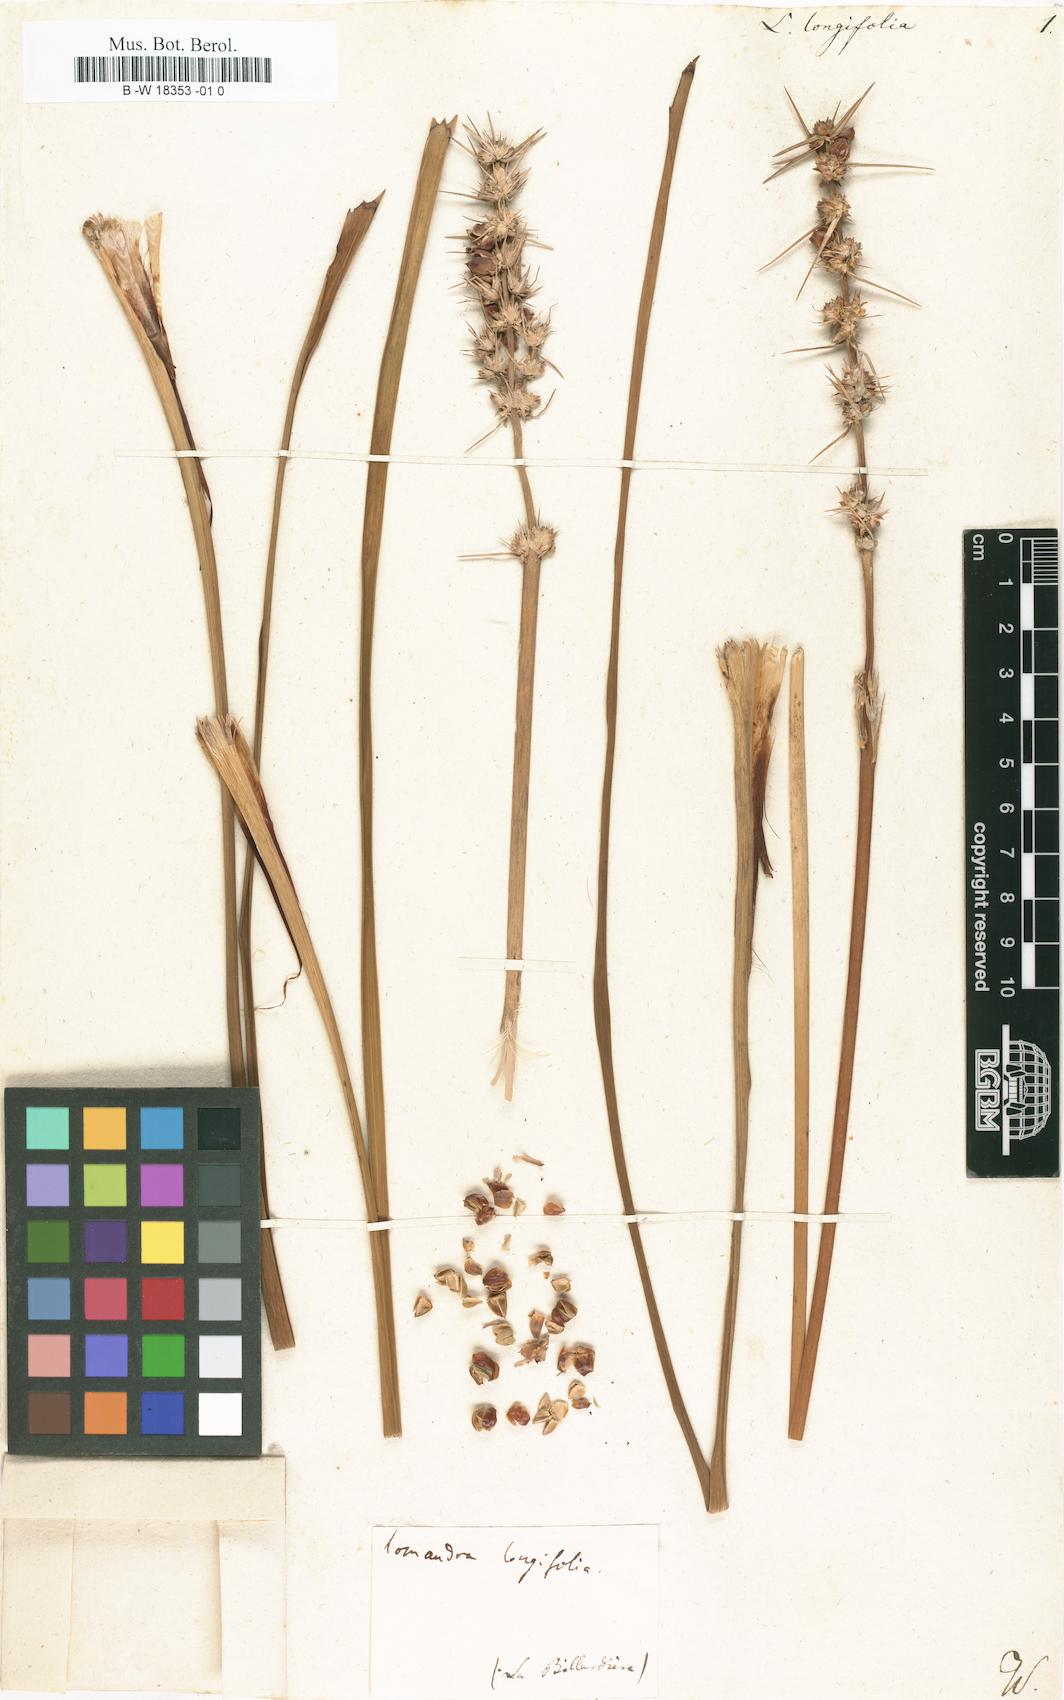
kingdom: Plantae
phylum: Tracheophyta
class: Liliopsida
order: Asparagales
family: Asparagaceae
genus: Lomandra
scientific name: Lomandra longifolia
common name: Longleaf mat-rush
